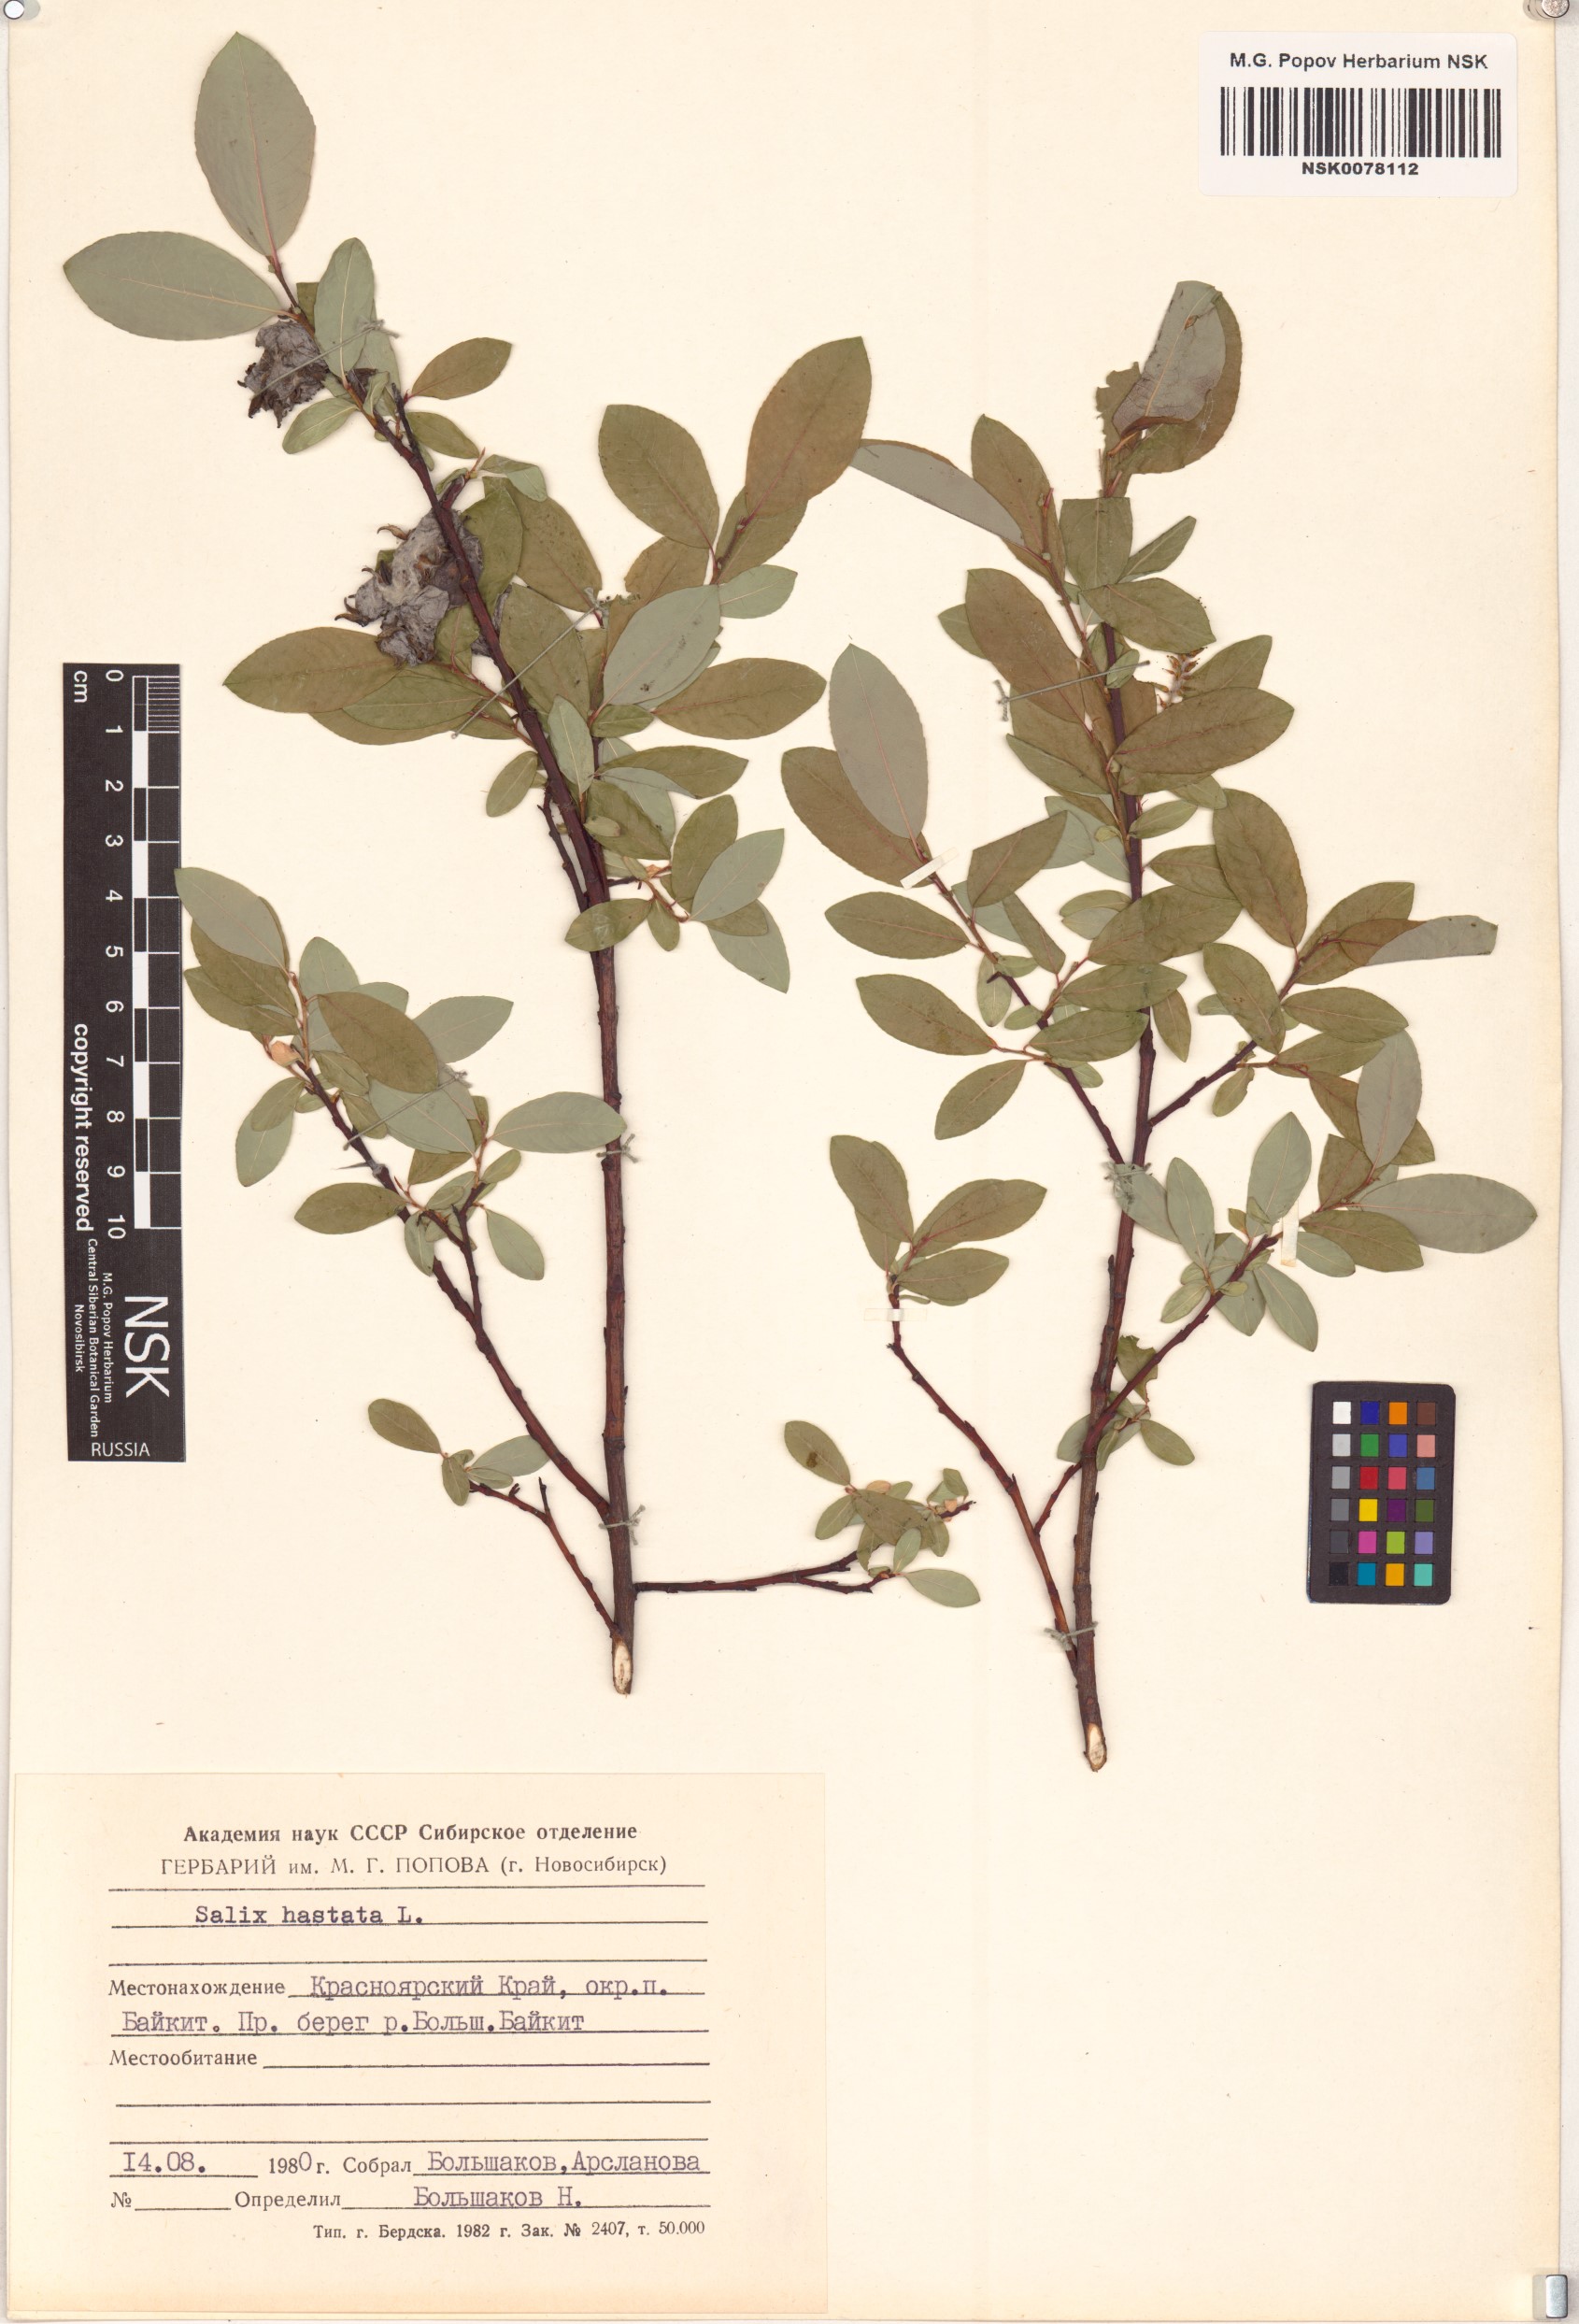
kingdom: Plantae
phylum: Tracheophyta
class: Magnoliopsida
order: Malpighiales
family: Salicaceae
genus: Salix
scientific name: Salix hastata
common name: Halberd willow
